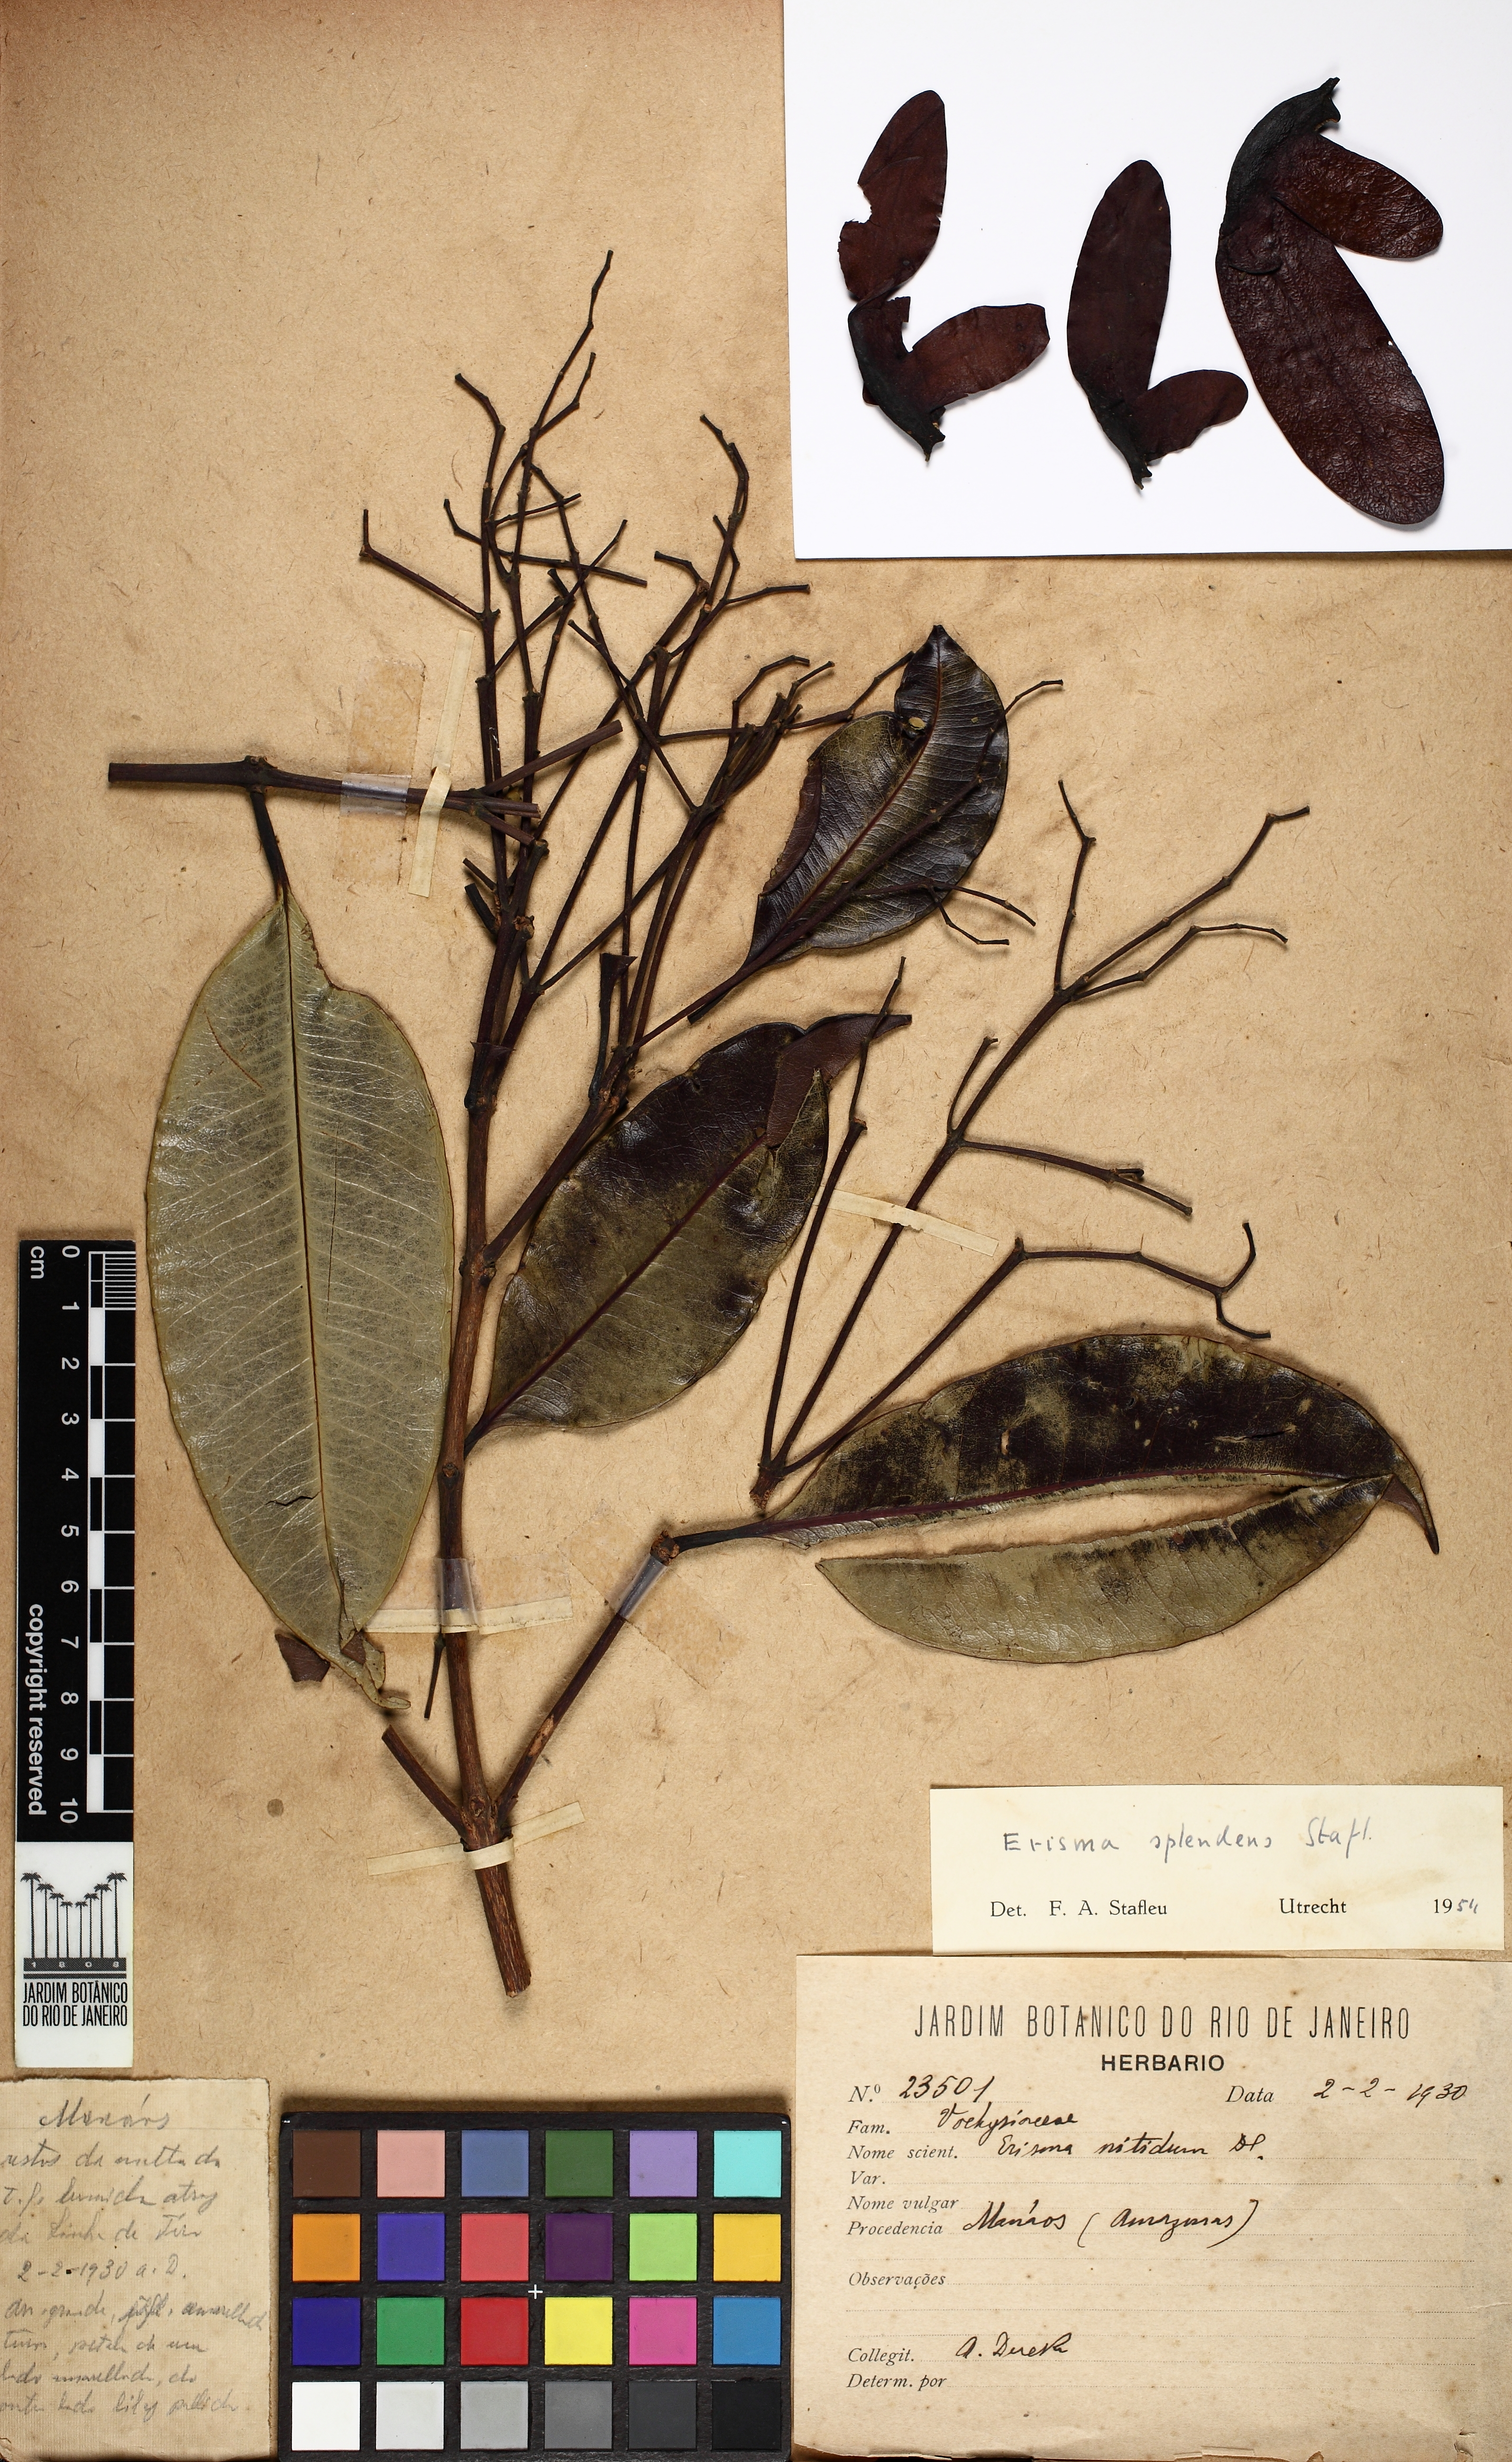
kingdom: Plantae
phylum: Tracheophyta
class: Magnoliopsida
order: Myrtales
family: Vochysiaceae
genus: Erisma
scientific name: Erisma splendens
